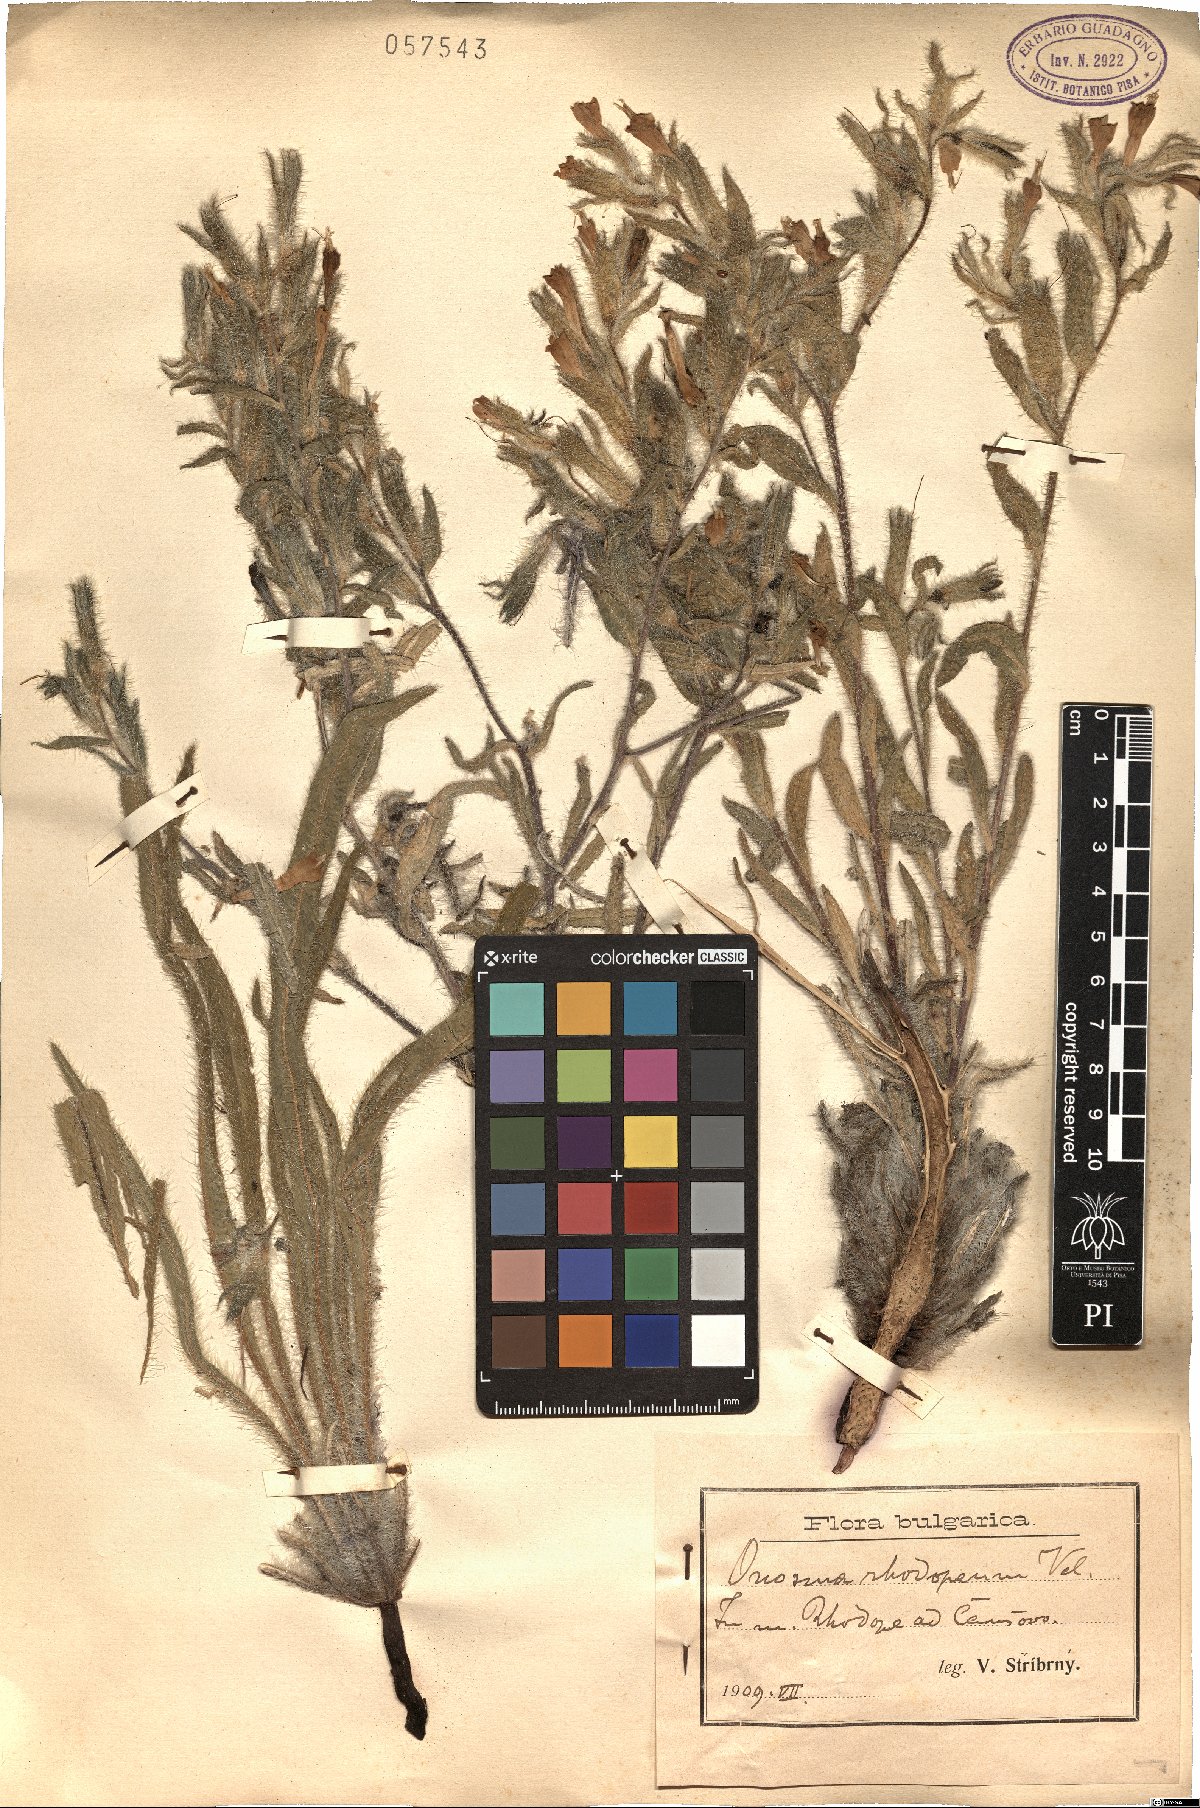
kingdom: Plantae
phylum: Tracheophyta
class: Magnoliopsida
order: Boraginales
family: Boraginaceae
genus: Onosma
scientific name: Onosma visianii
